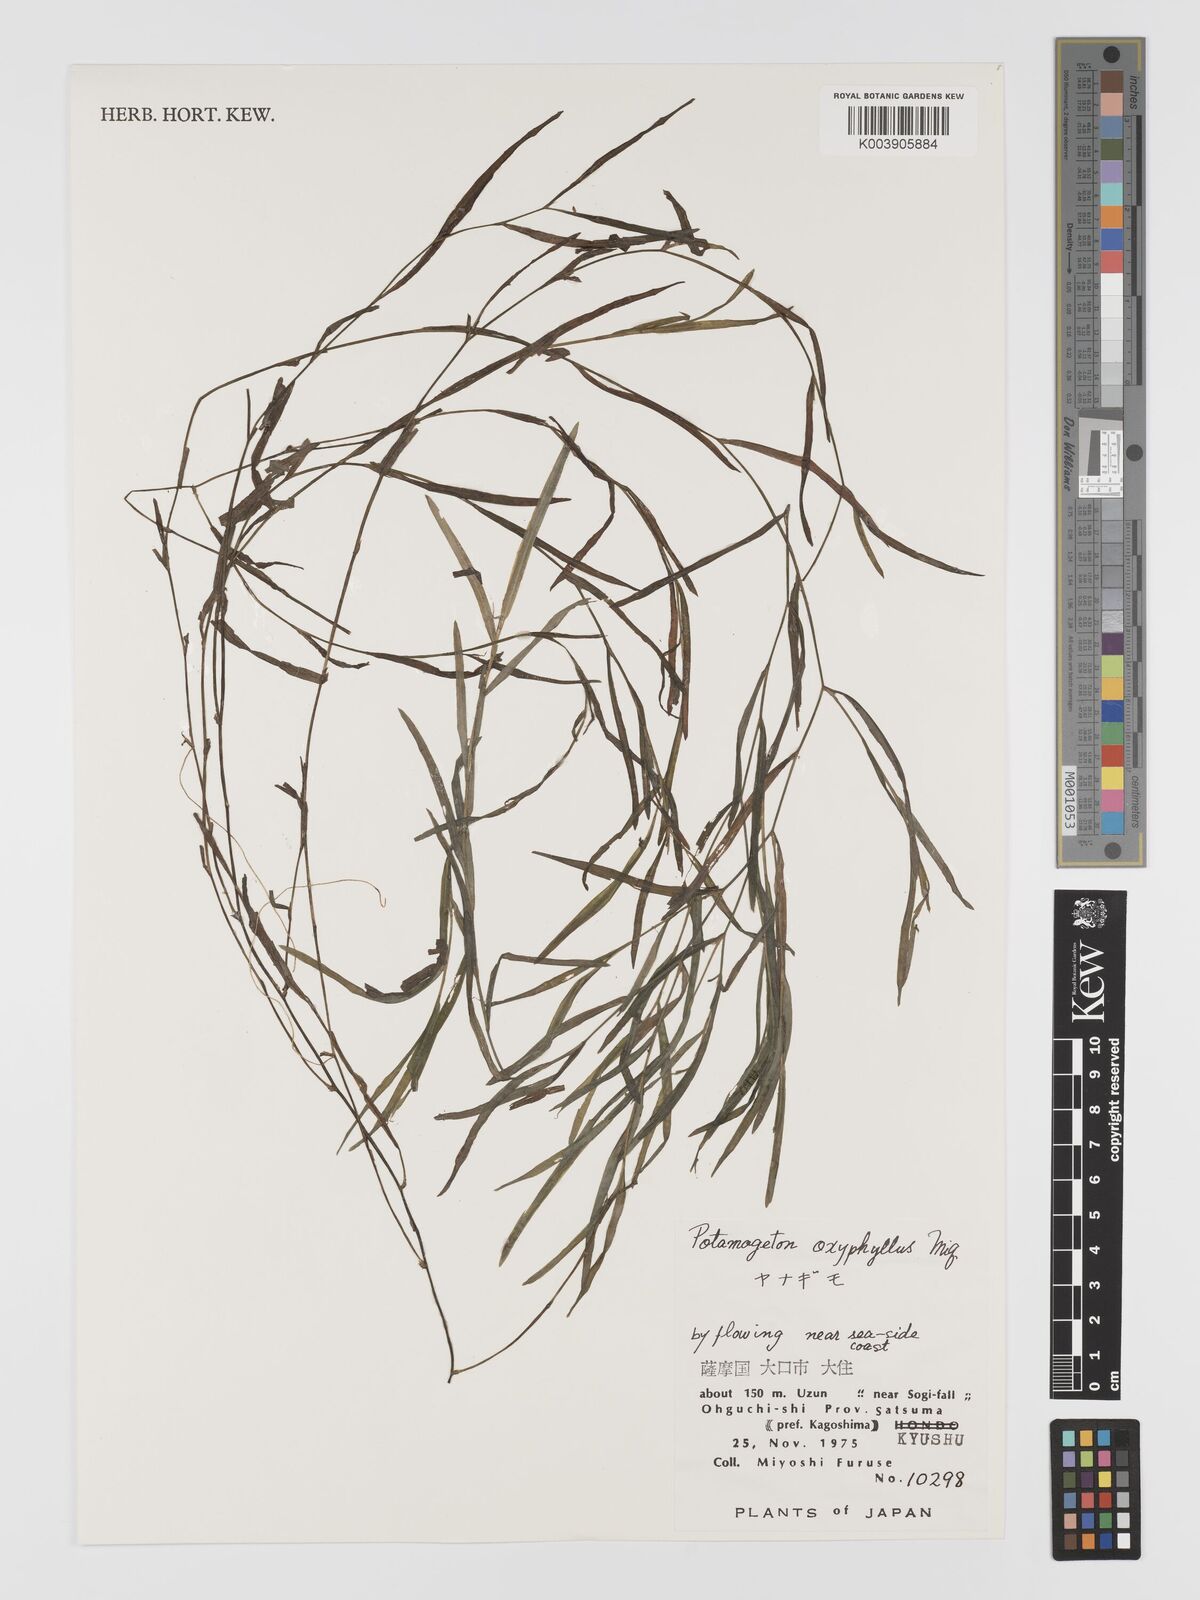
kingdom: Plantae
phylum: Tracheophyta
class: Liliopsida
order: Alismatales
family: Potamogetonaceae
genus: Potamogeton
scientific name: Potamogeton oxyphyllus
